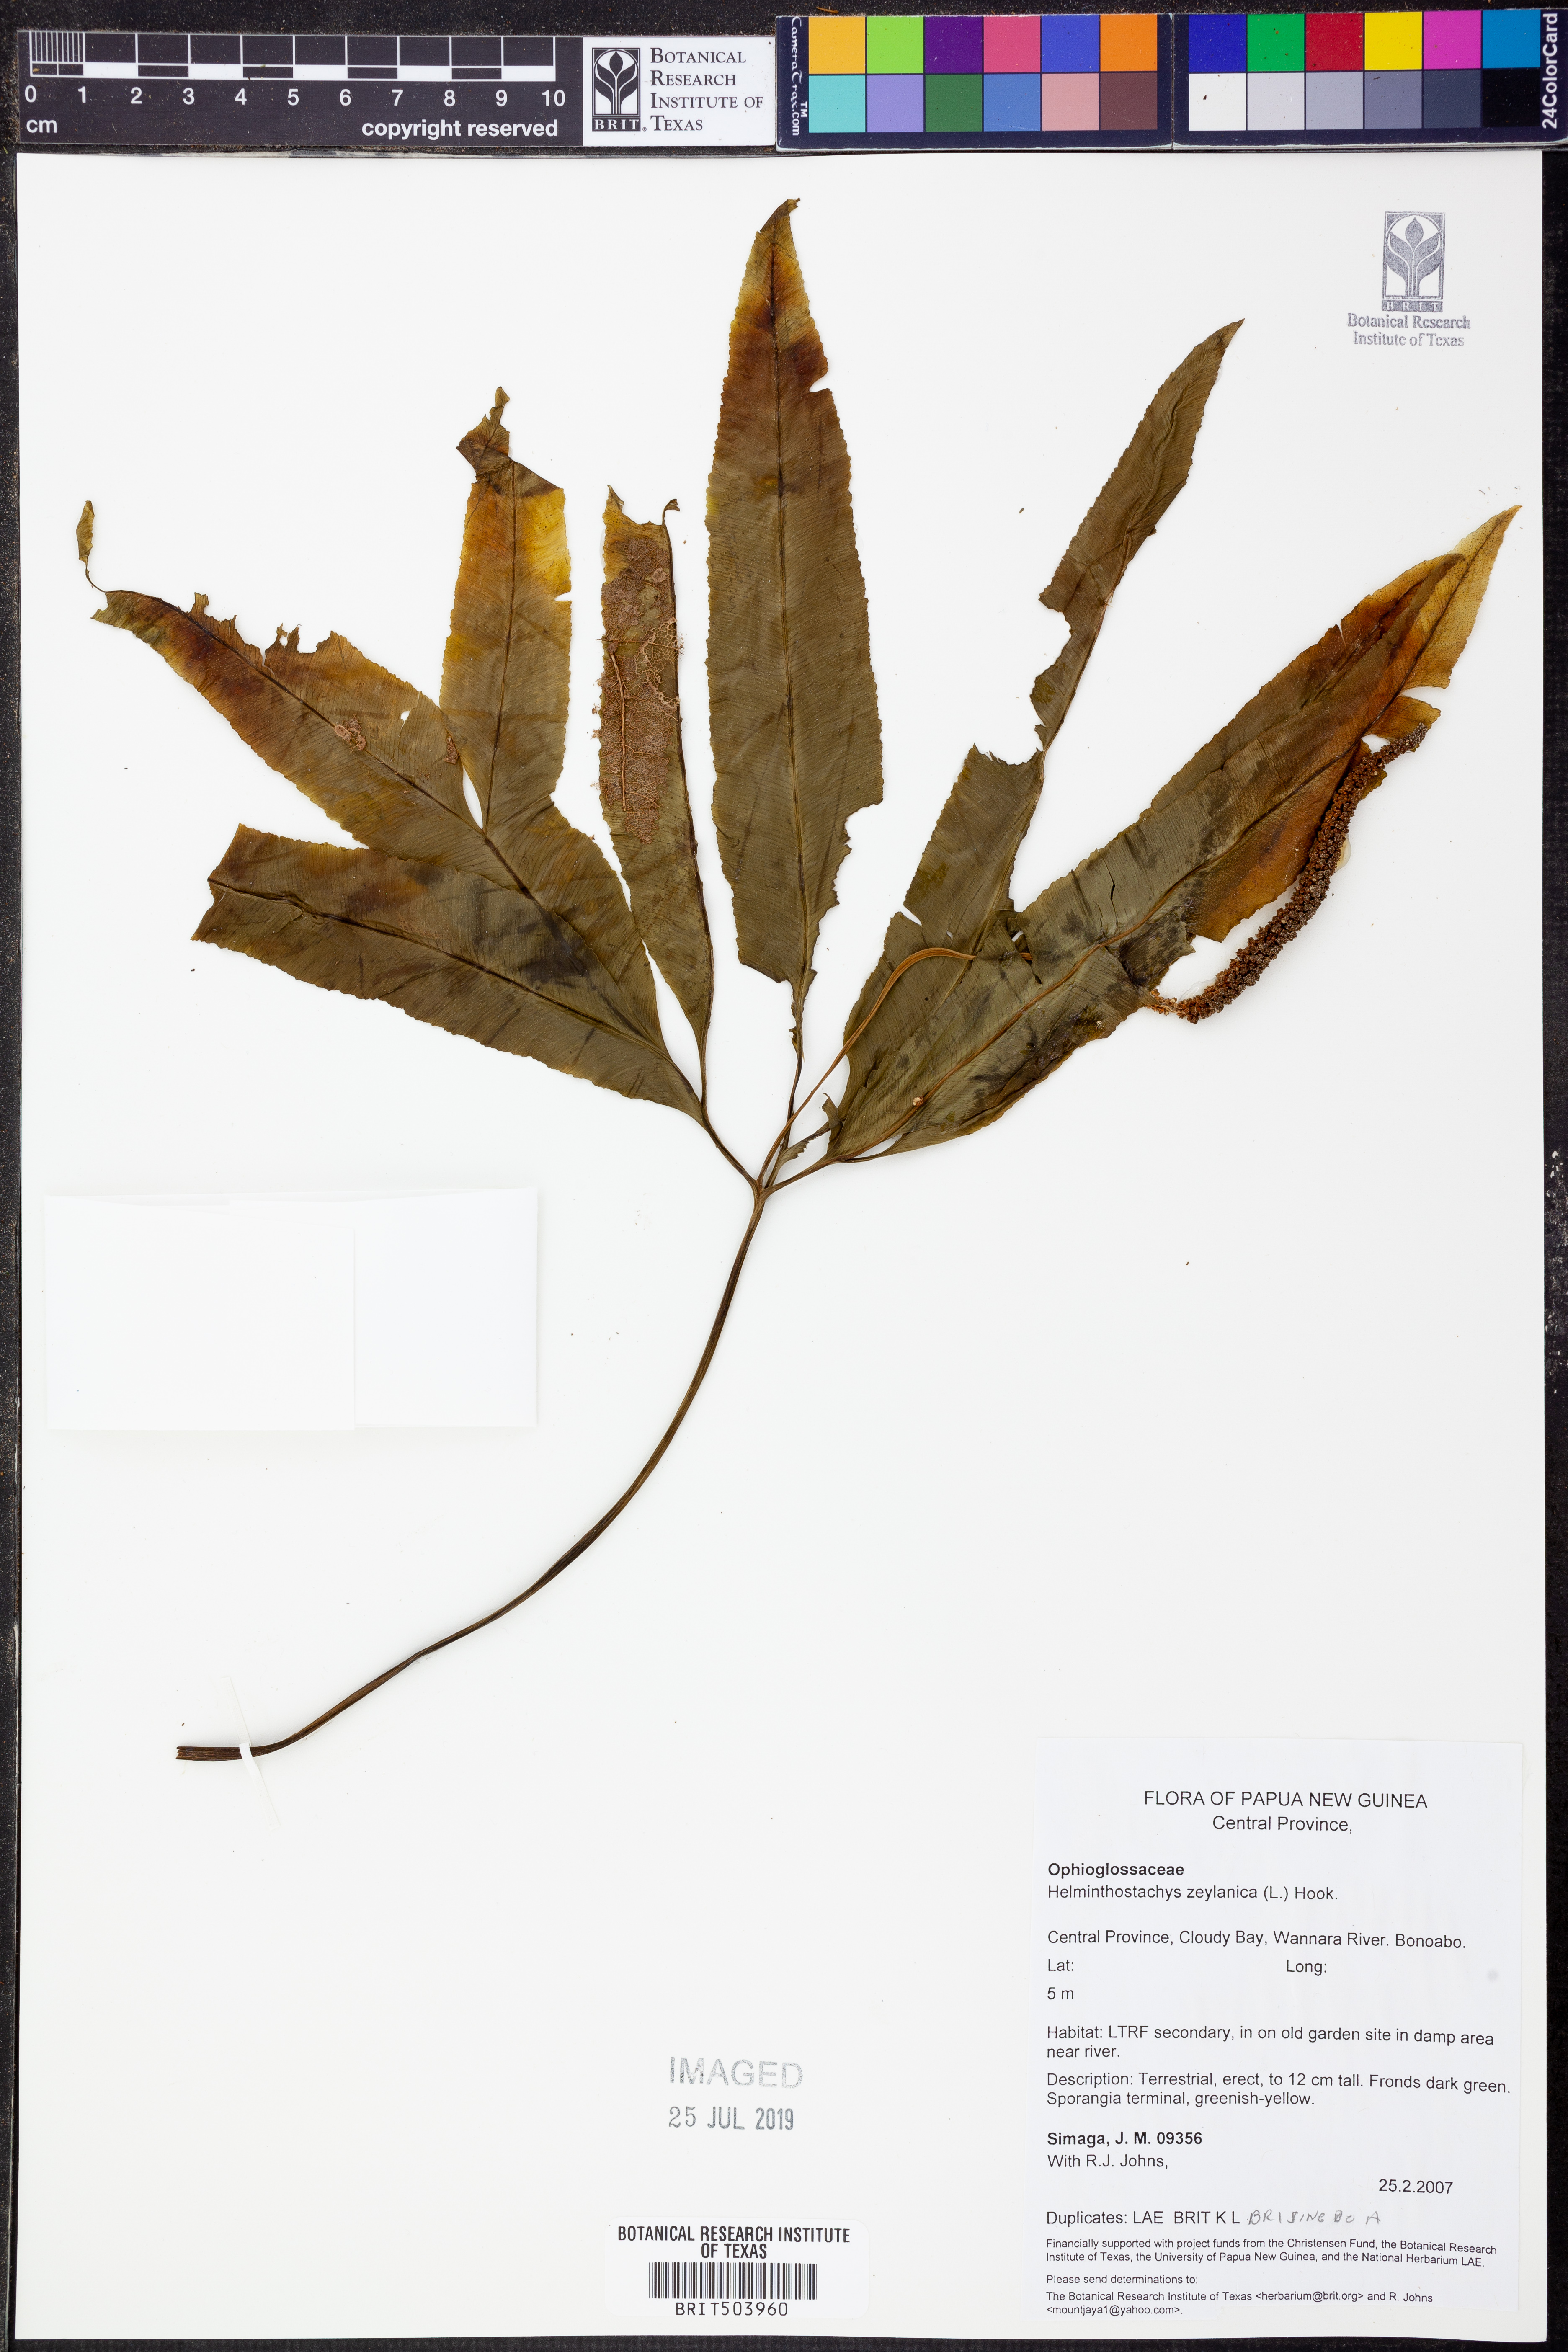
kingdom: Plantae
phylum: Tracheophyta
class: Polypodiopsida
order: Ophioglossales
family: Ophioglossaceae
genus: Helminthostachys
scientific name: Helminthostachys zeylanica
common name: Flowering fern
